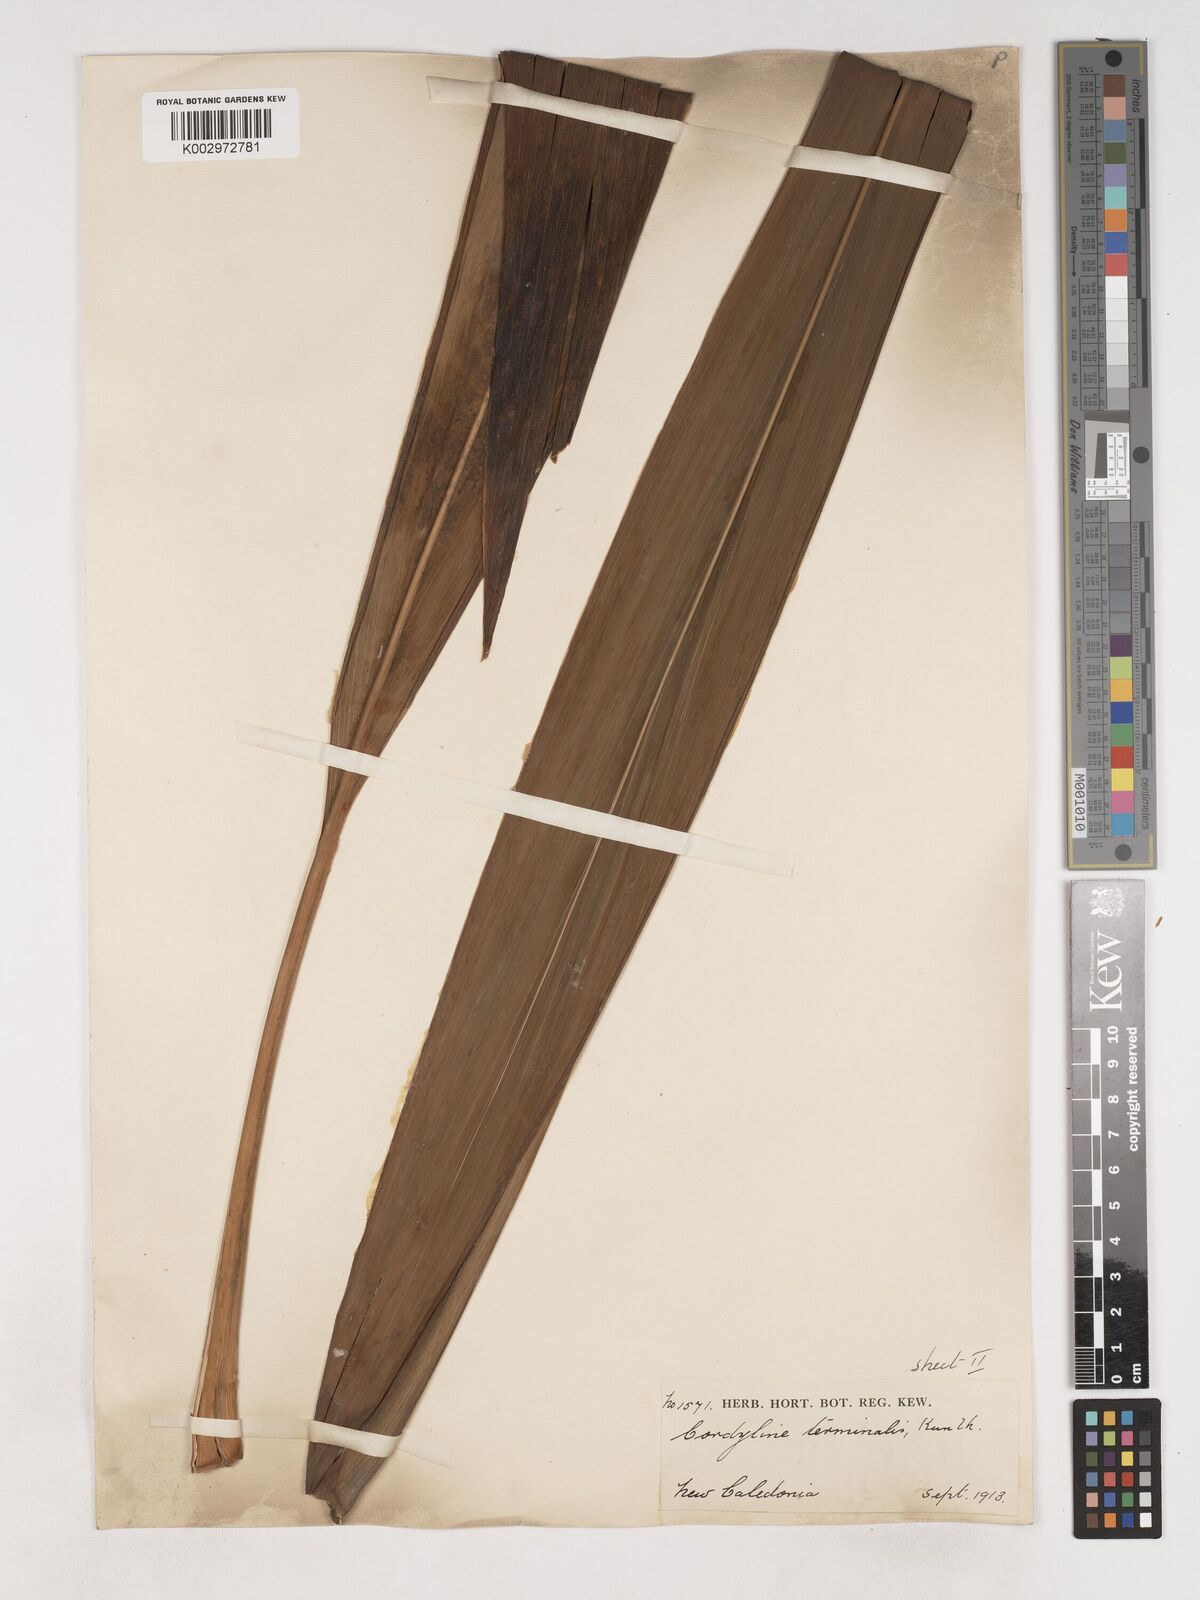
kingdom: Plantae
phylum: Tracheophyta
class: Liliopsida
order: Asparagales
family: Asparagaceae
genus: Cordyline
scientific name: Cordyline fruticosa
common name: Good-luck-plant
